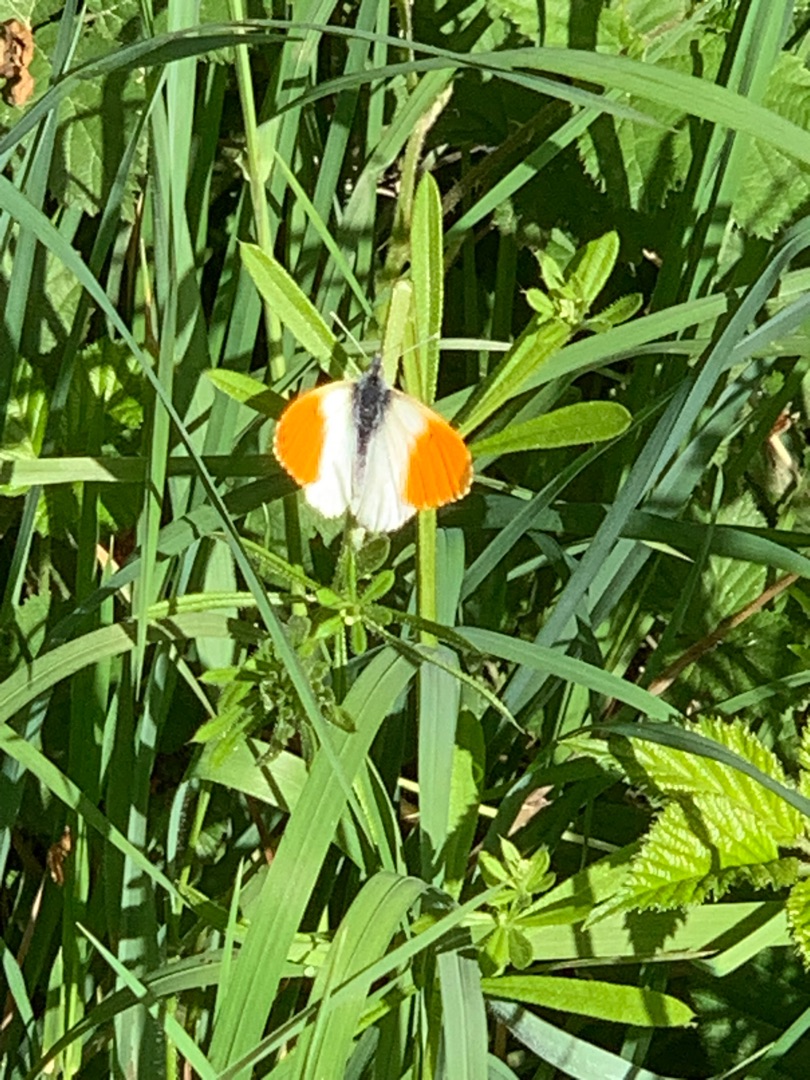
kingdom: Animalia
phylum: Arthropoda
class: Insecta
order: Lepidoptera
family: Pieridae
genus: Anthocharis
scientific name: Anthocharis cardamines
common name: Aurora
